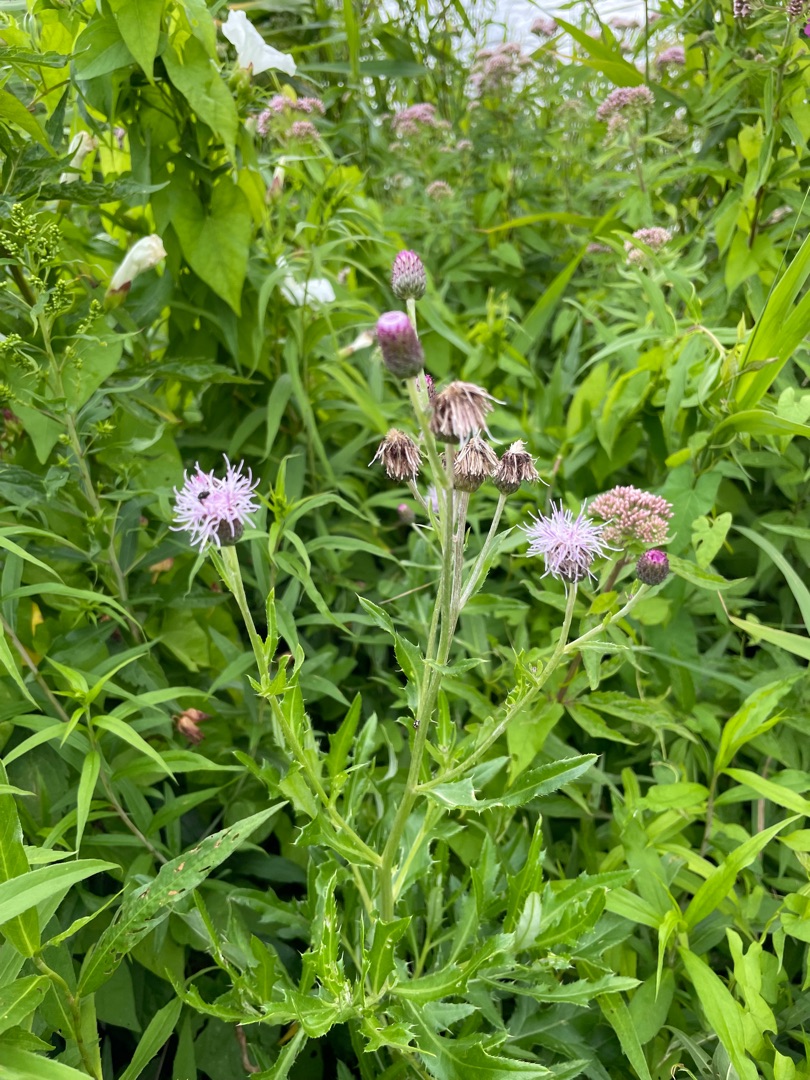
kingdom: Plantae
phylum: Tracheophyta
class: Magnoliopsida
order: Asterales
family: Asteraceae
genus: Cirsium
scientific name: Cirsium arvense
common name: Ager-tidsel
